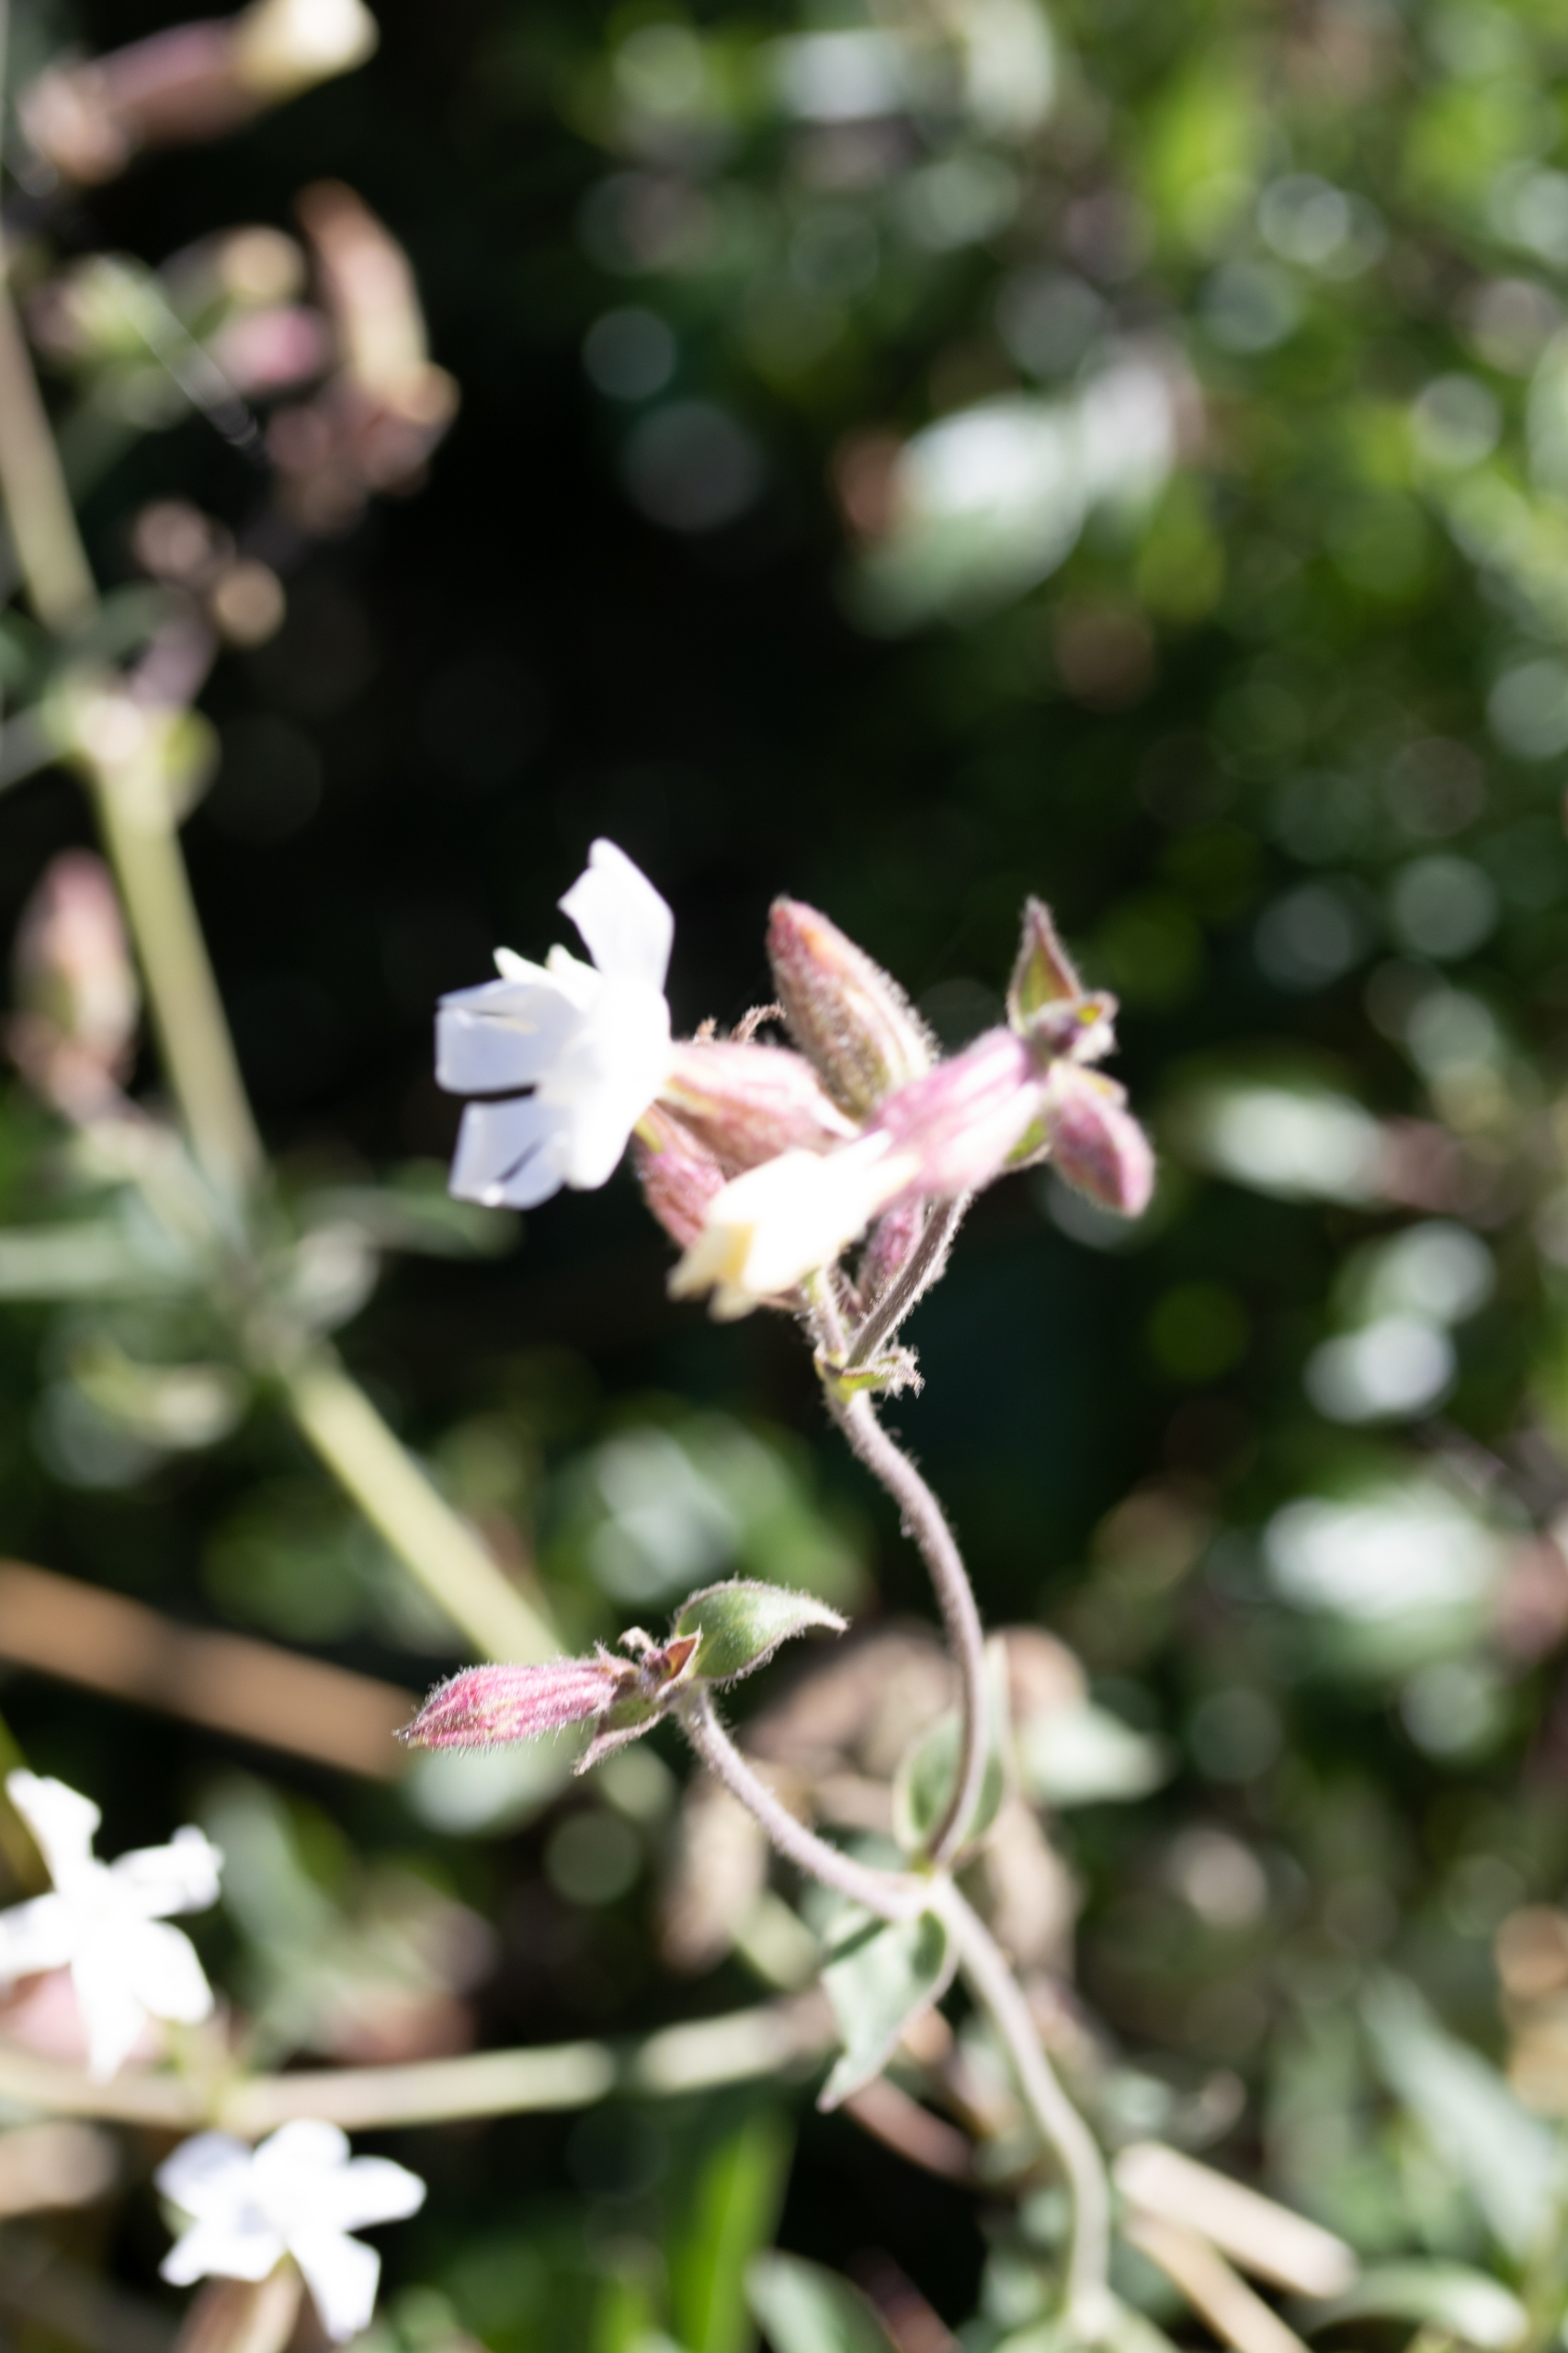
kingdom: Plantae
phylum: Tracheophyta
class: Magnoliopsida
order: Caryophyllales
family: Caryophyllaceae
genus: Silene
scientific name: Silene latifolia
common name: Aftenpragtstjerne (underart)
